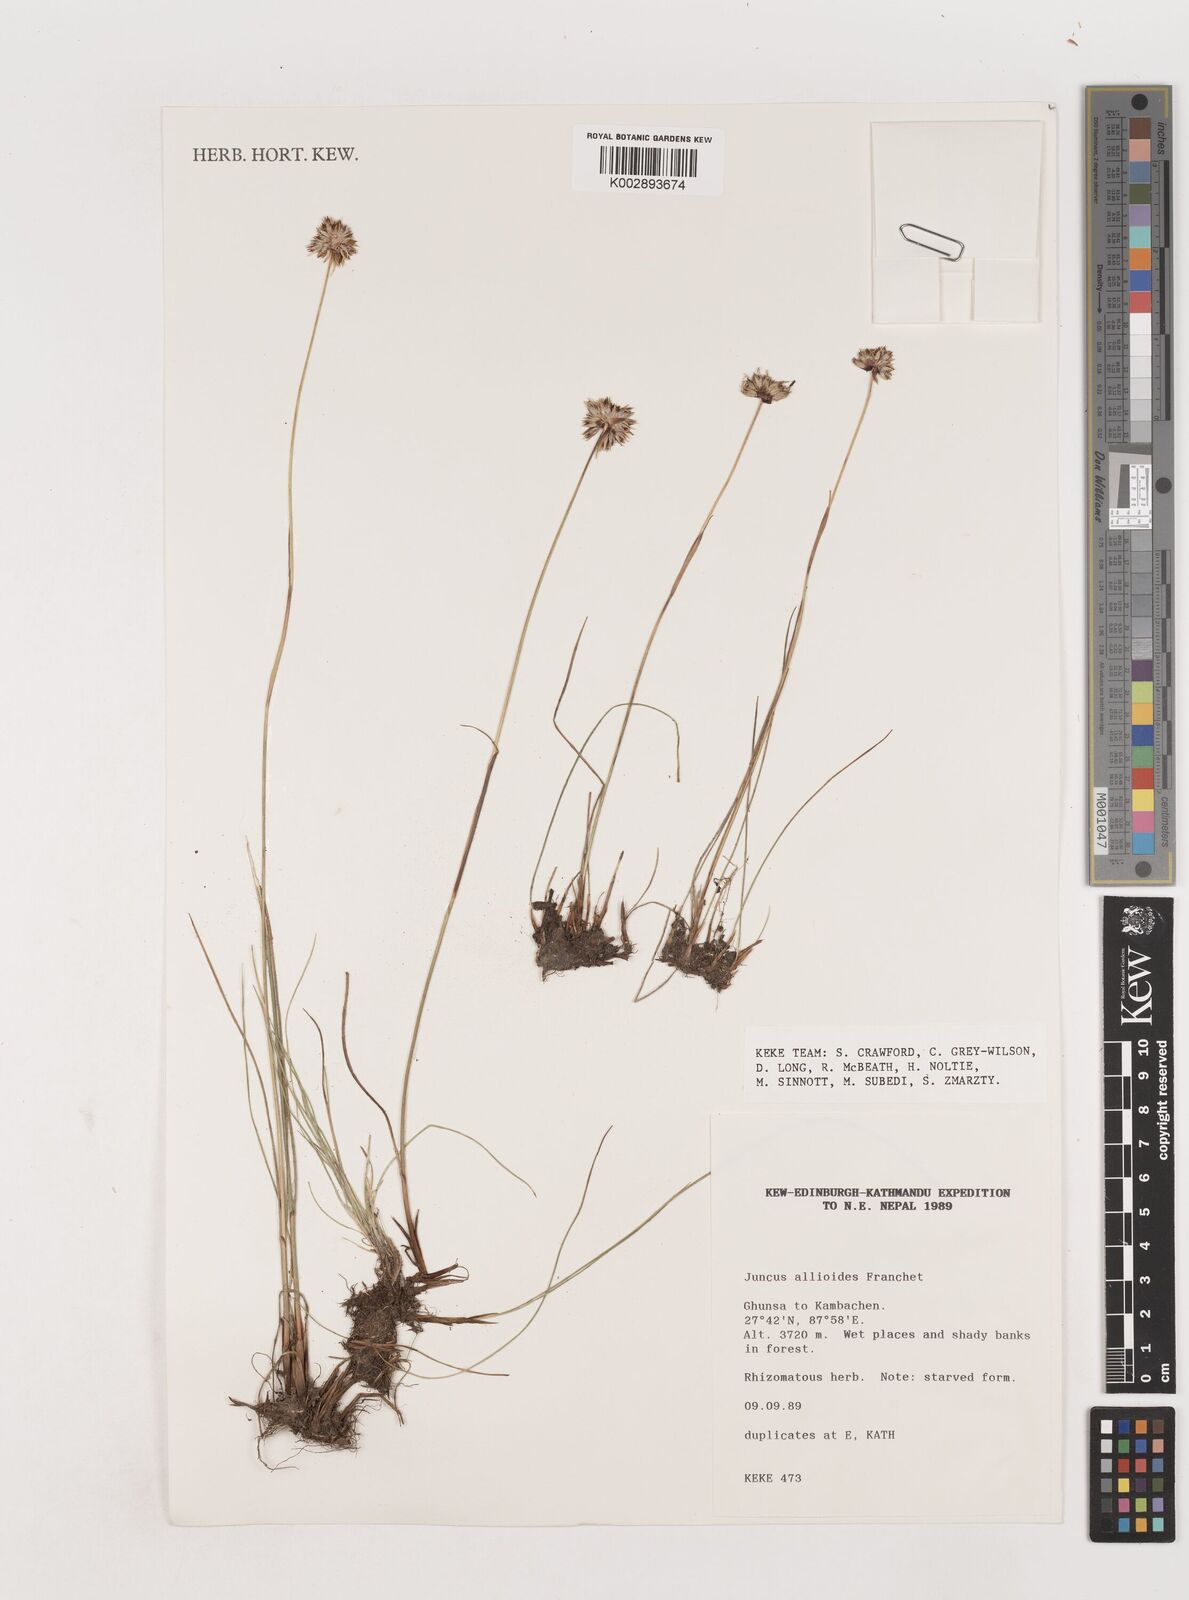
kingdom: Plantae
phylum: Tracheophyta
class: Liliopsida
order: Poales
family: Juncaceae
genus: Juncus
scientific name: Juncus allioides
